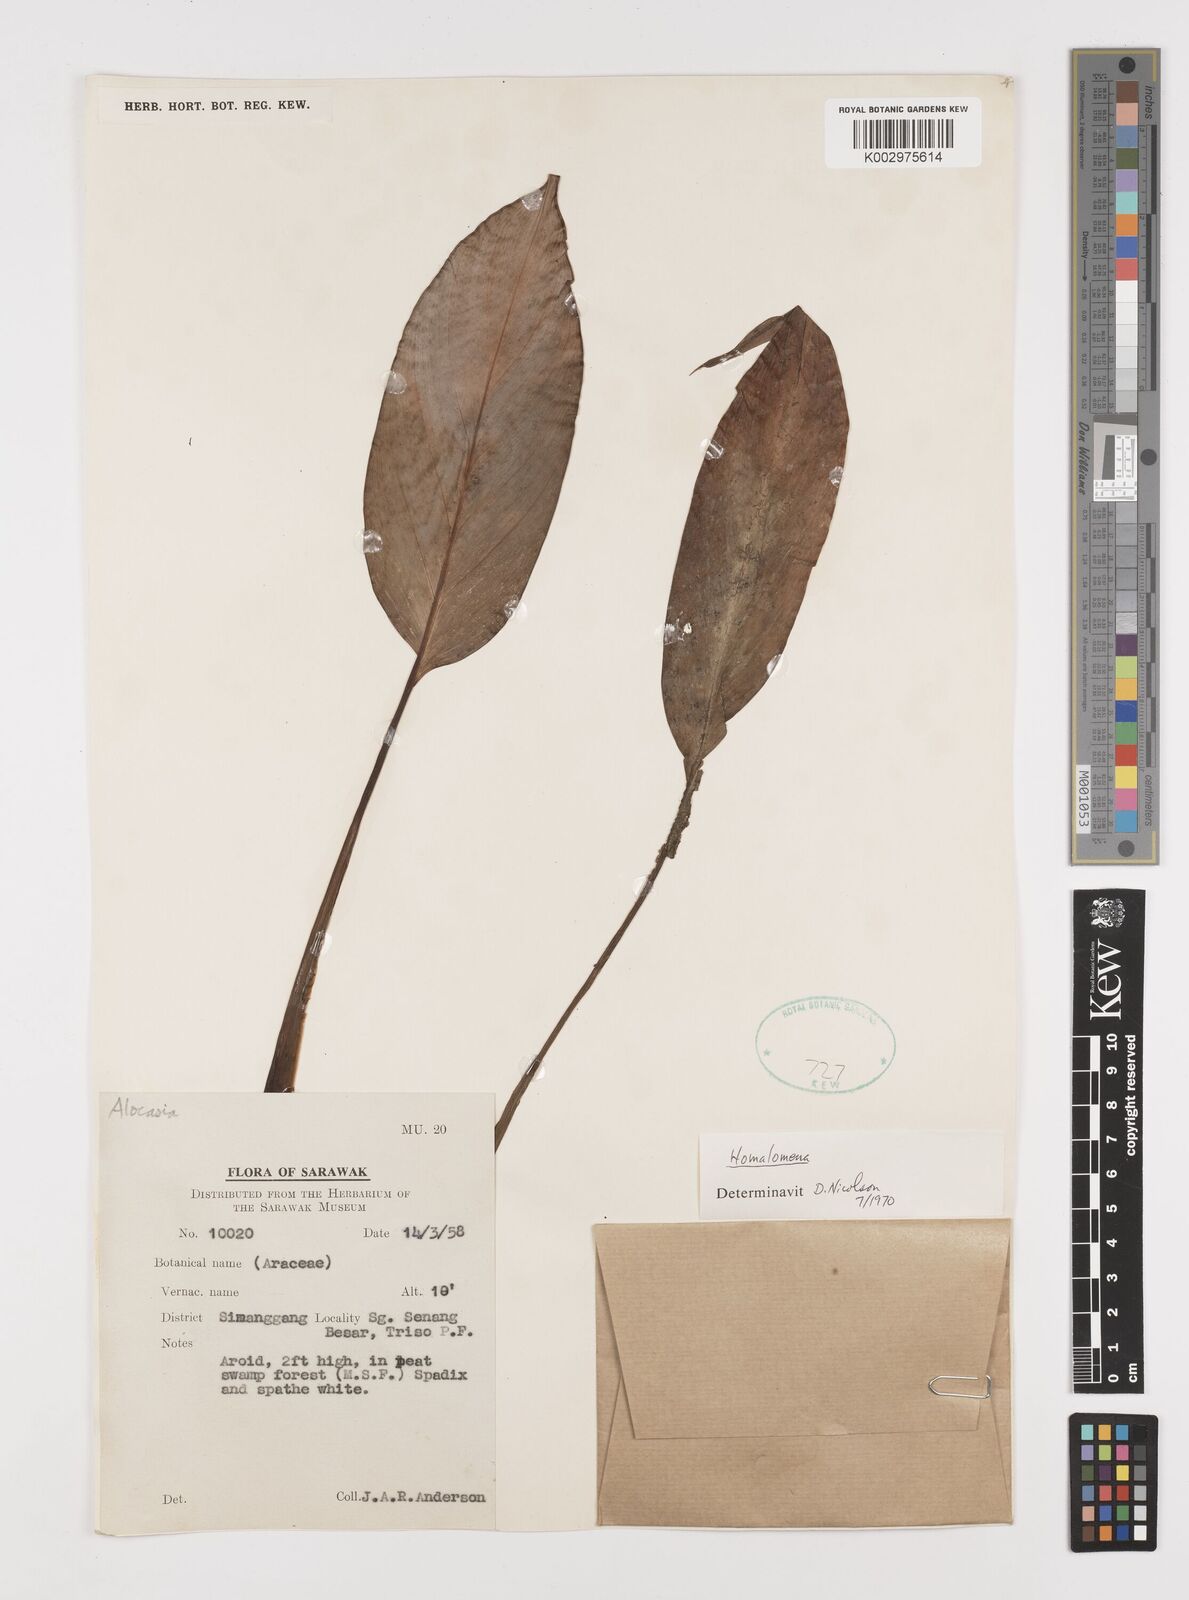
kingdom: Plantae
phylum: Tracheophyta
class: Liliopsida
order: Alismatales
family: Araceae
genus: Homalomena
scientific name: Homalomena
